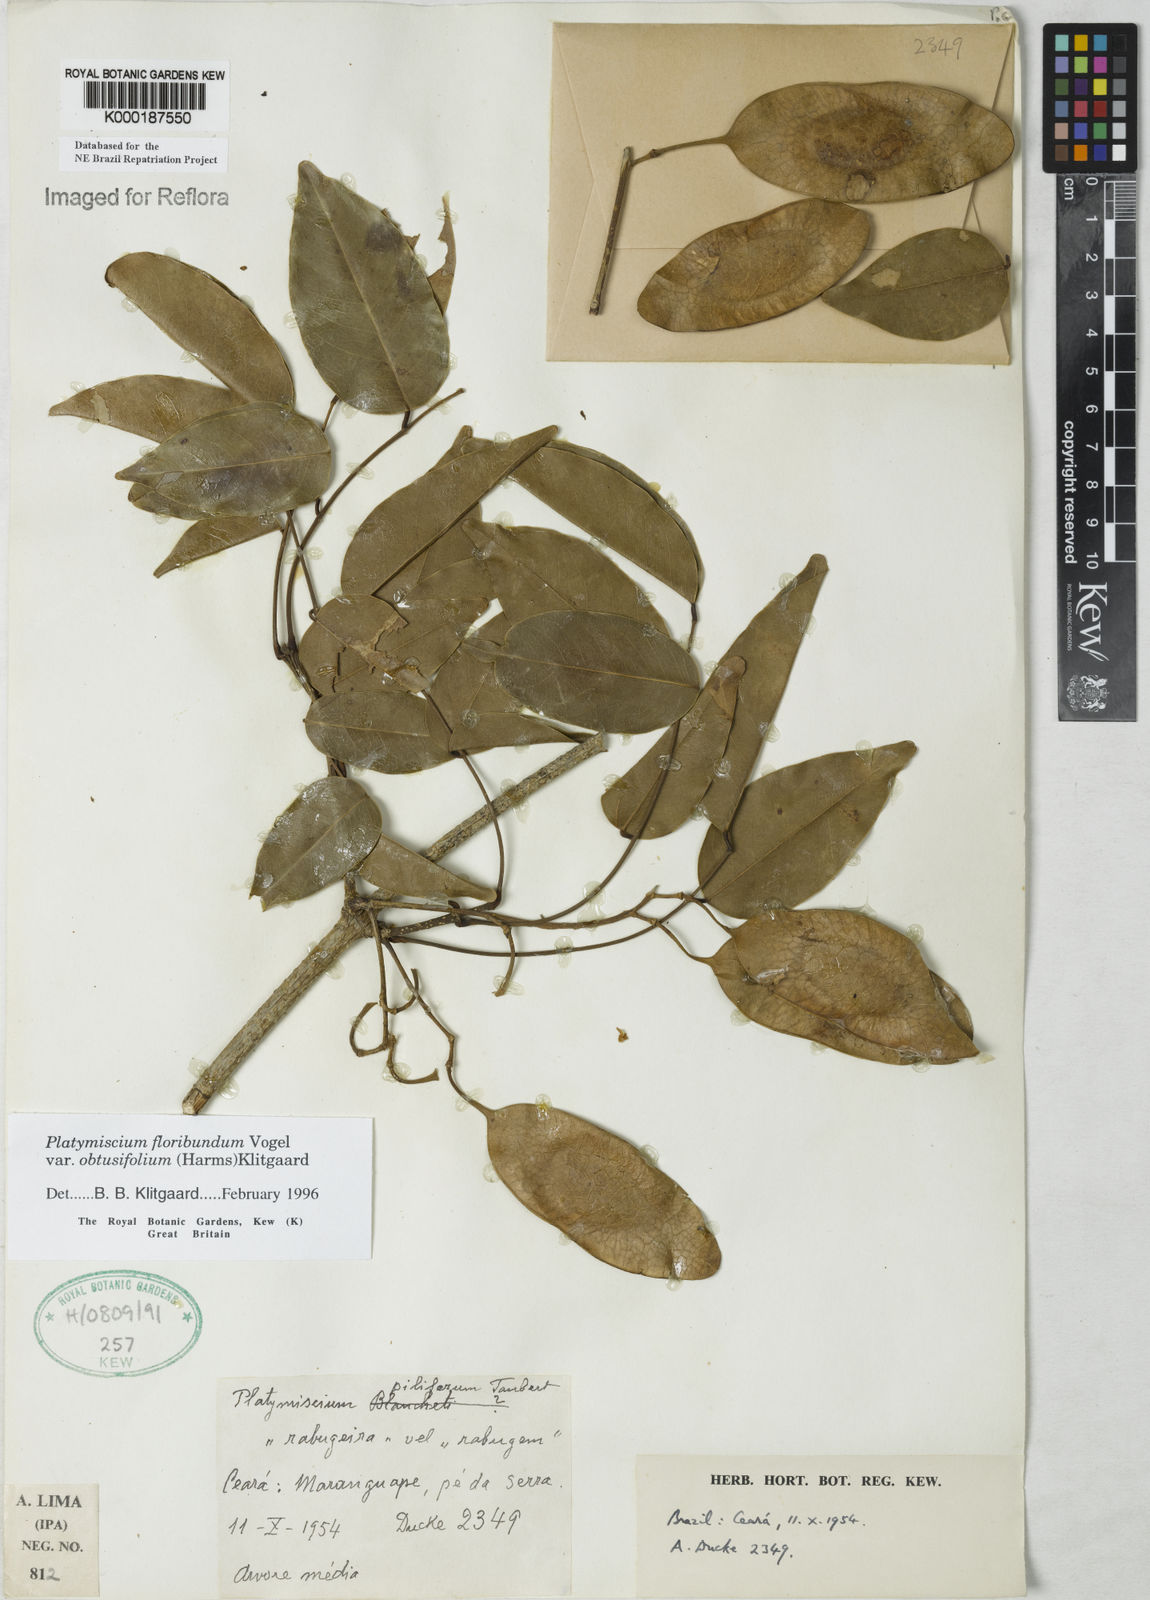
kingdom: Plantae
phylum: Tracheophyta
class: Magnoliopsida
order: Fabales
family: Fabaceae
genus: Platymiscium
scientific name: Platymiscium floribundum
